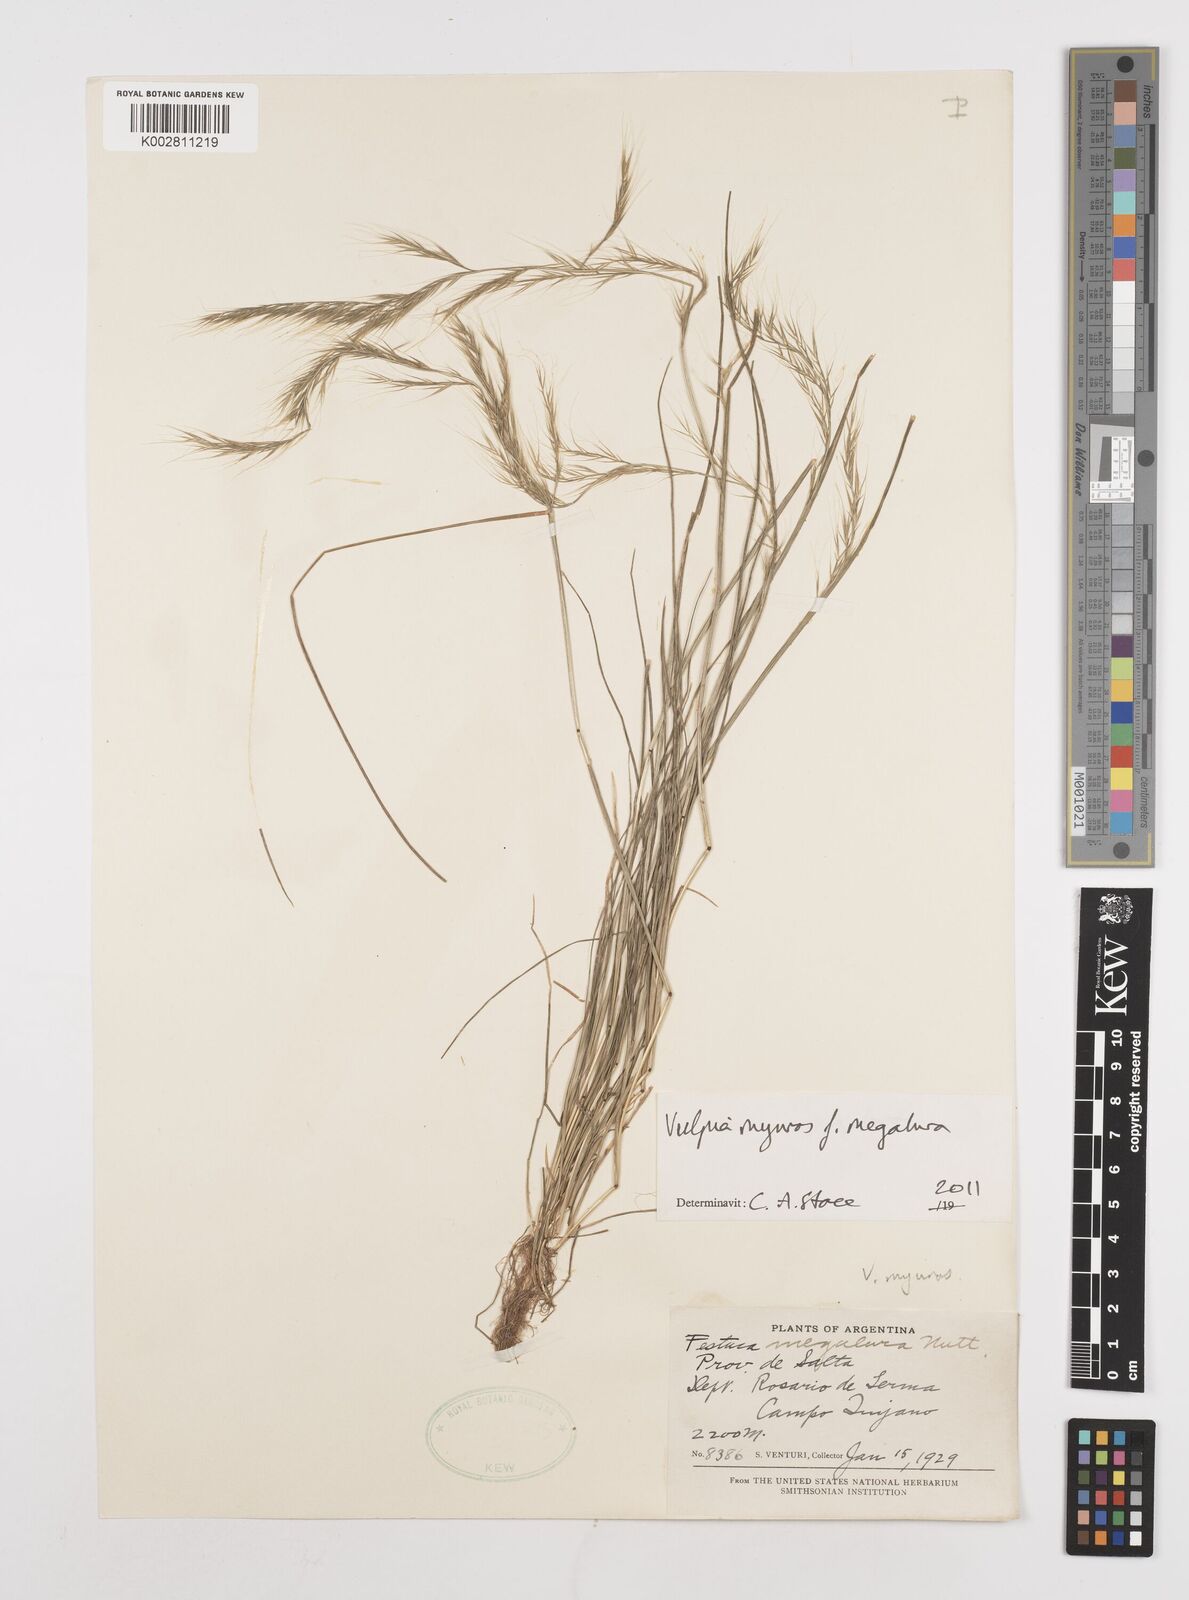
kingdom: Plantae
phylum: Tracheophyta
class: Liliopsida
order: Poales
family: Poaceae
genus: Festuca
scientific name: Festuca myuros
